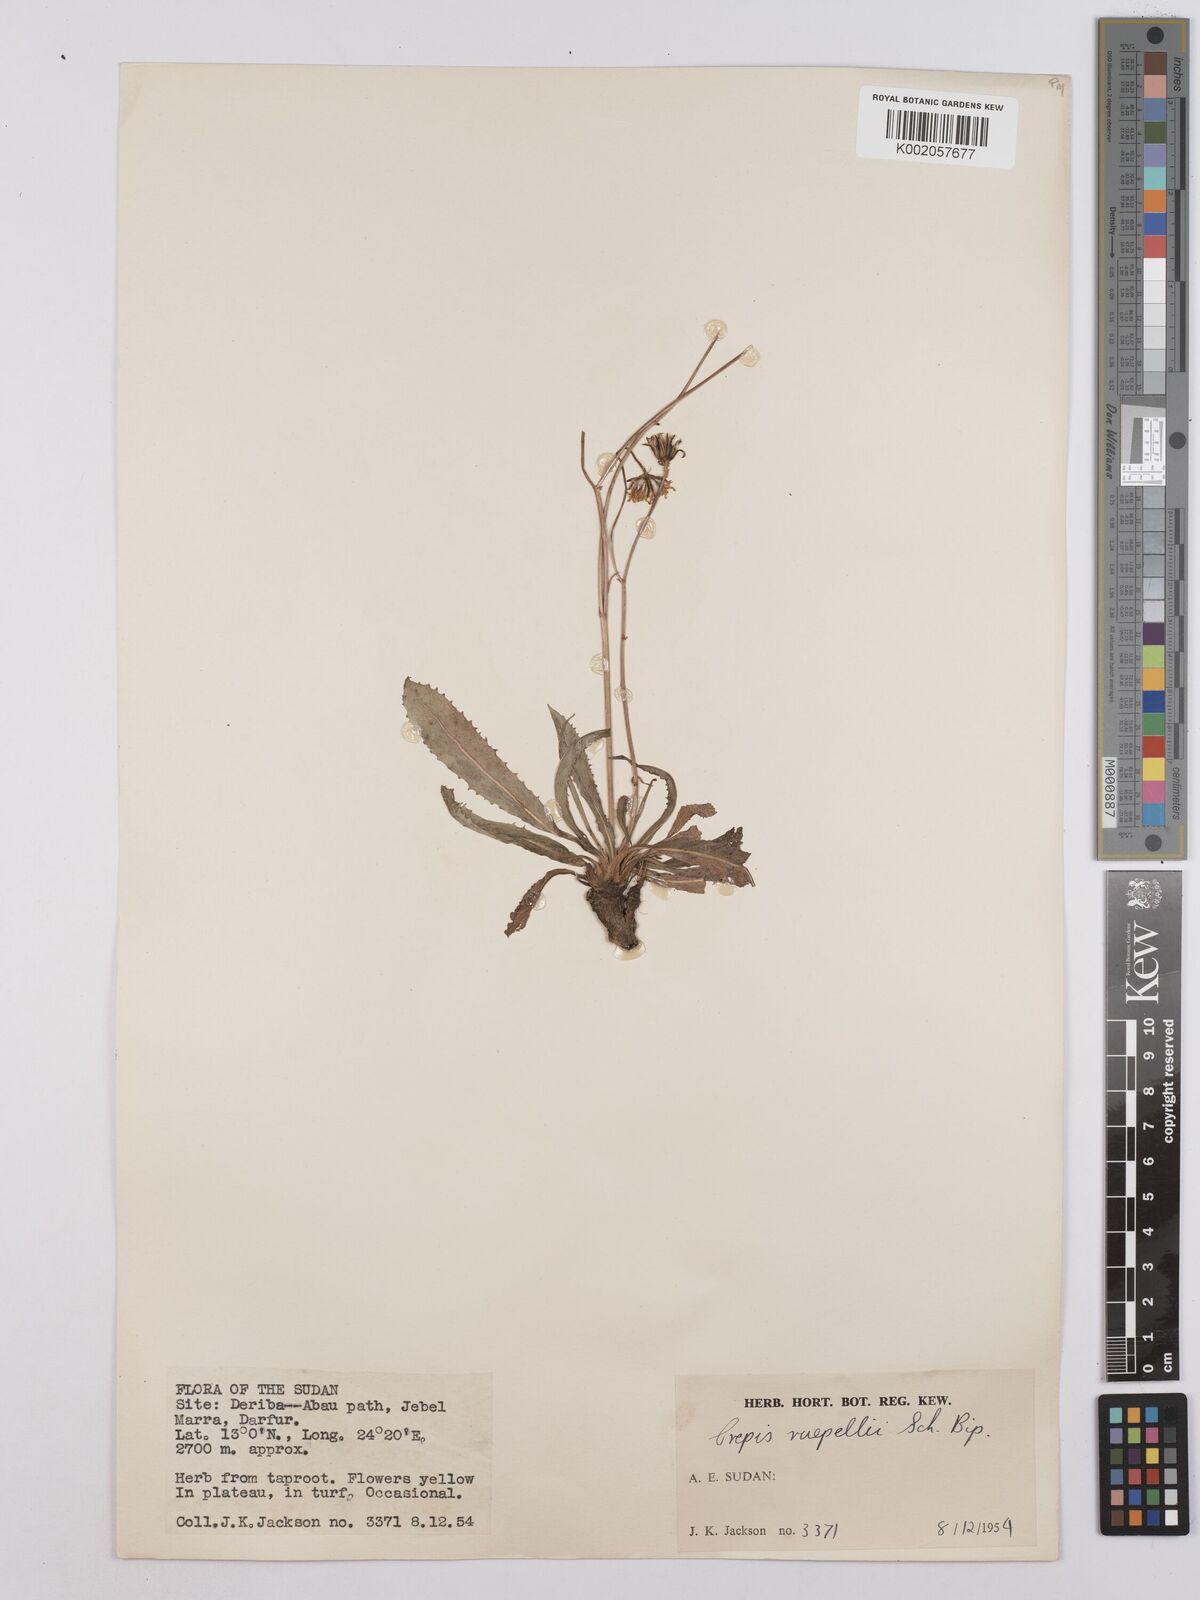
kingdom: Plantae
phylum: Tracheophyta
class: Magnoliopsida
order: Asterales
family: Asteraceae
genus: Crepis
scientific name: Crepis rueppellii
